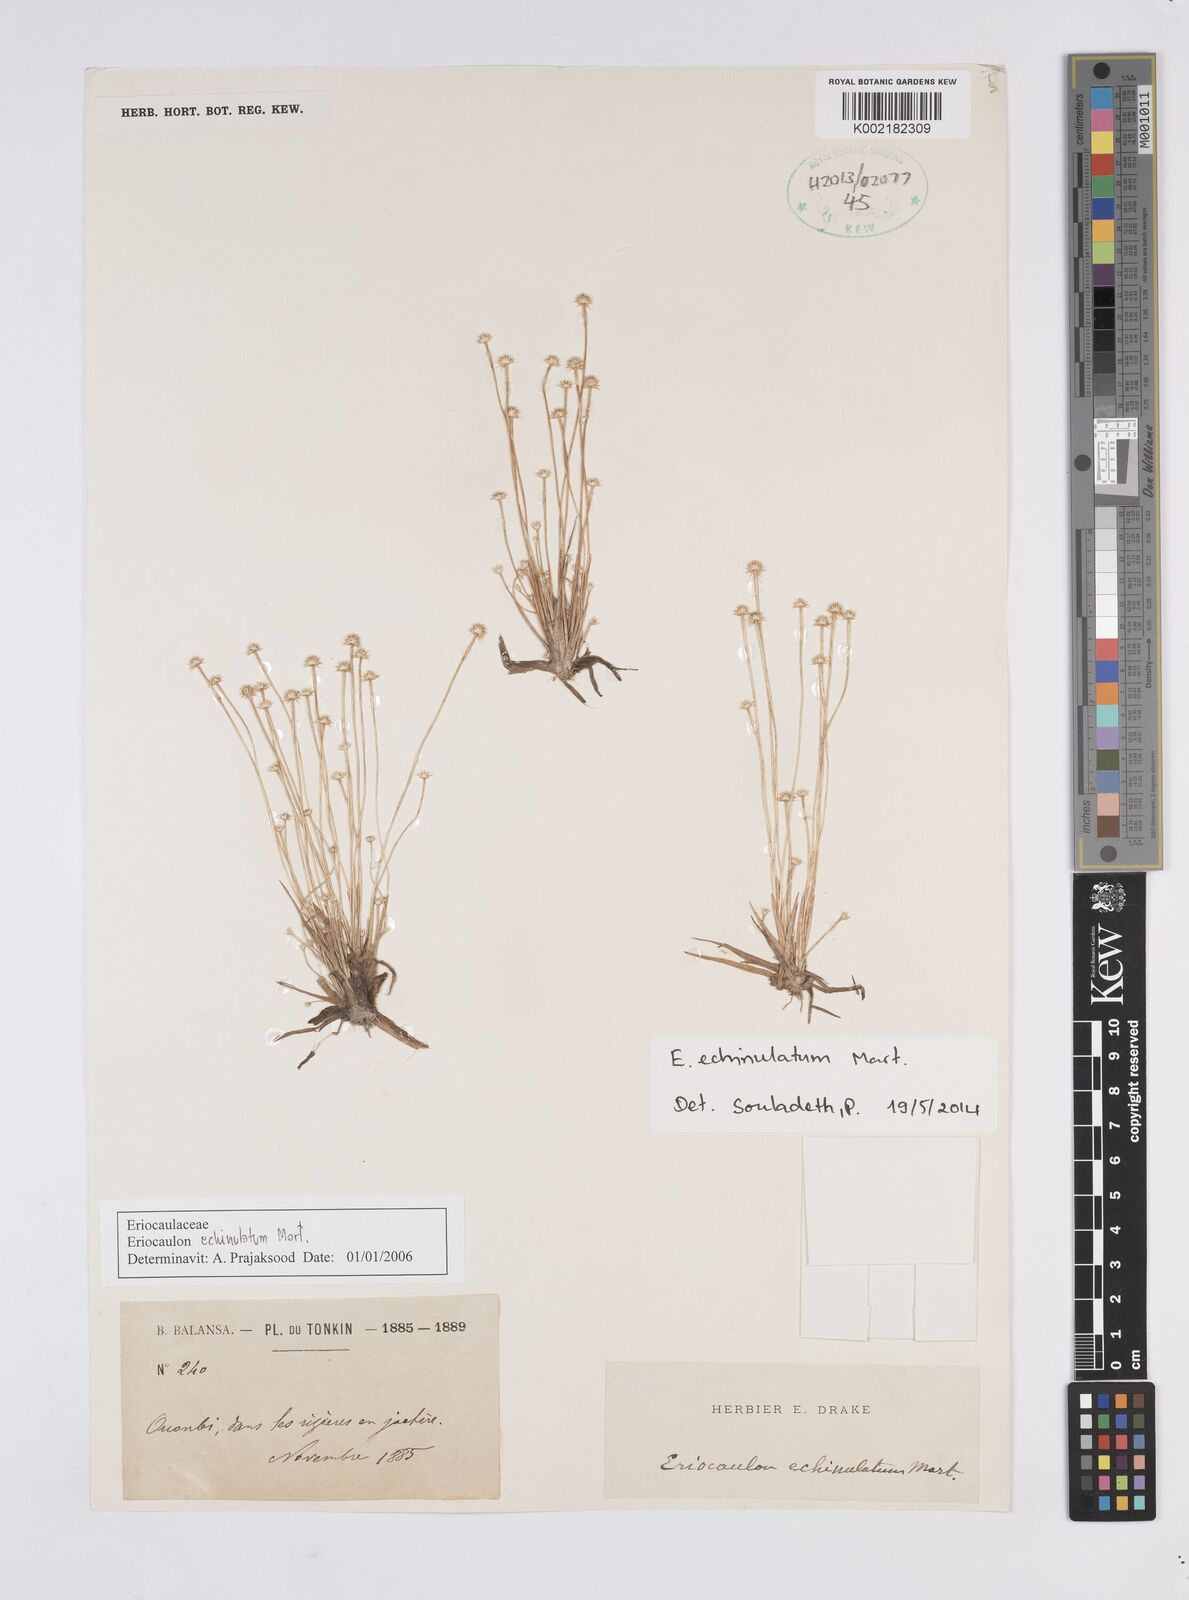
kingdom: Plantae
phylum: Tracheophyta
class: Liliopsida
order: Poales
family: Eriocaulaceae
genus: Eriocaulon
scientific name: Eriocaulon echinulatum
